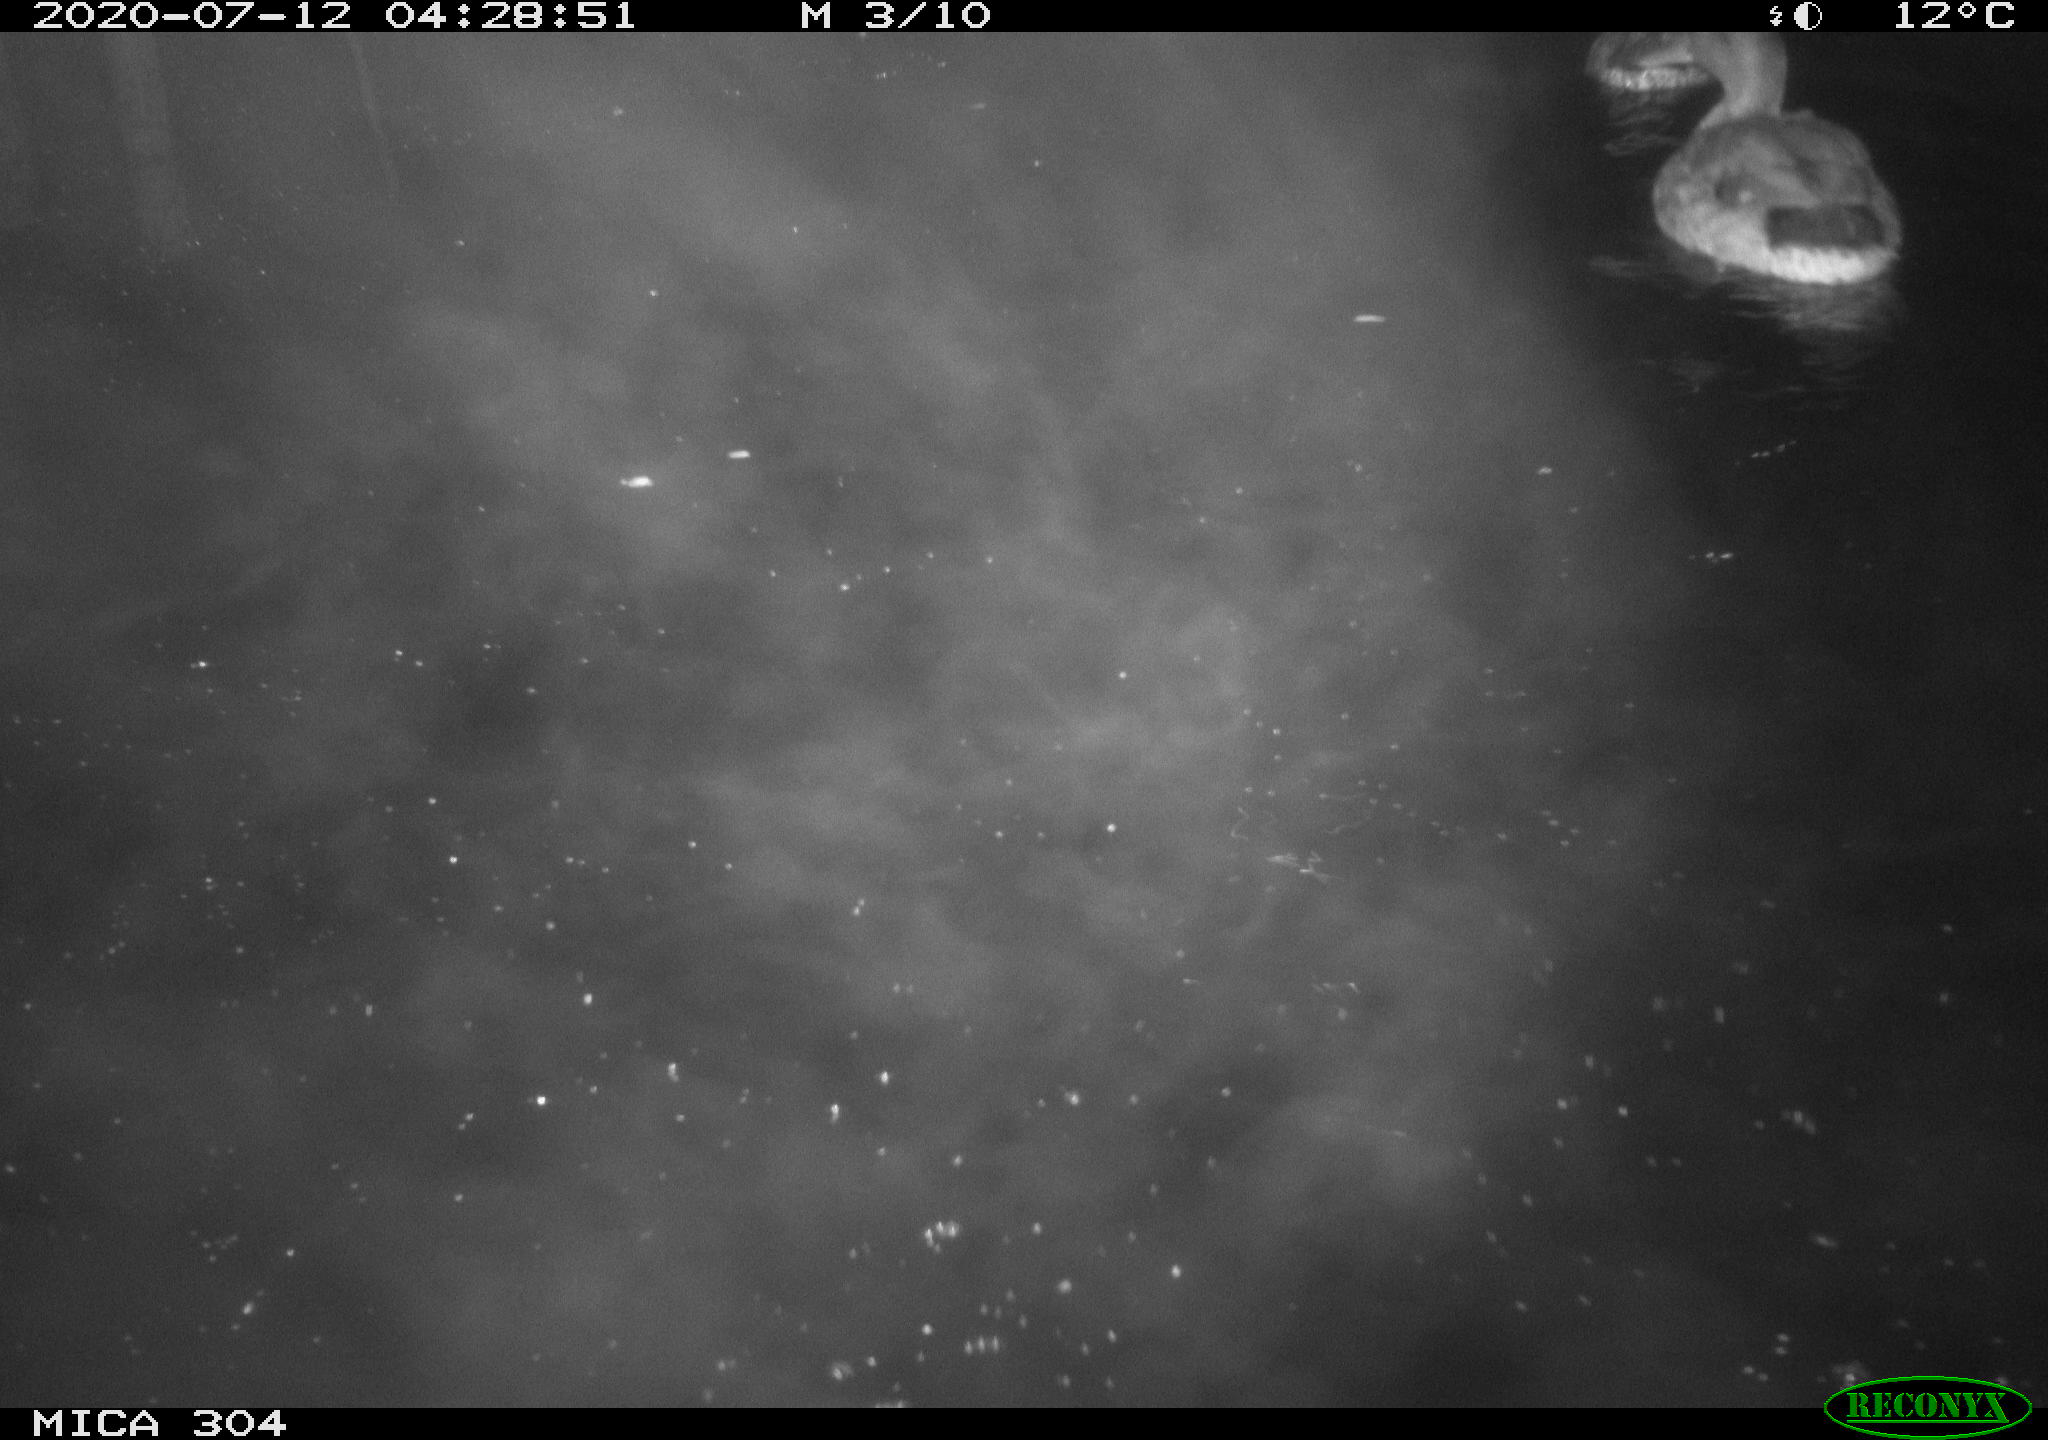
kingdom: Animalia
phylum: Chordata
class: Aves
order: Anseriformes
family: Anatidae
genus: Anas
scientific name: Anas platyrhynchos
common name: Mallard
